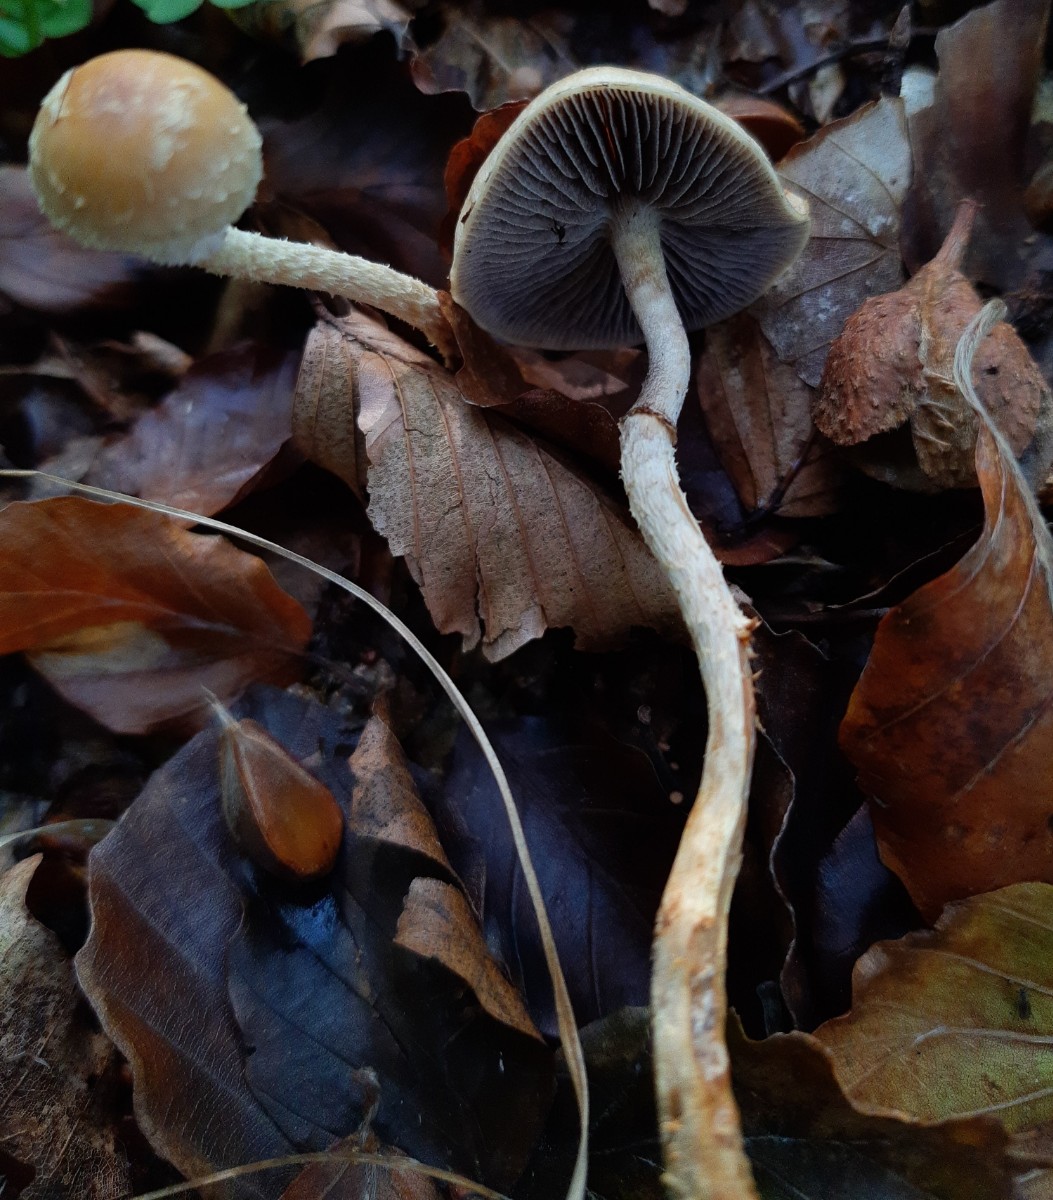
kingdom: Fungi
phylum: Basidiomycota
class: Agaricomycetes
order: Agaricales
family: Strophariaceae
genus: Leratiomyces
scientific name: Leratiomyces squamosus
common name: skællet bredblad
